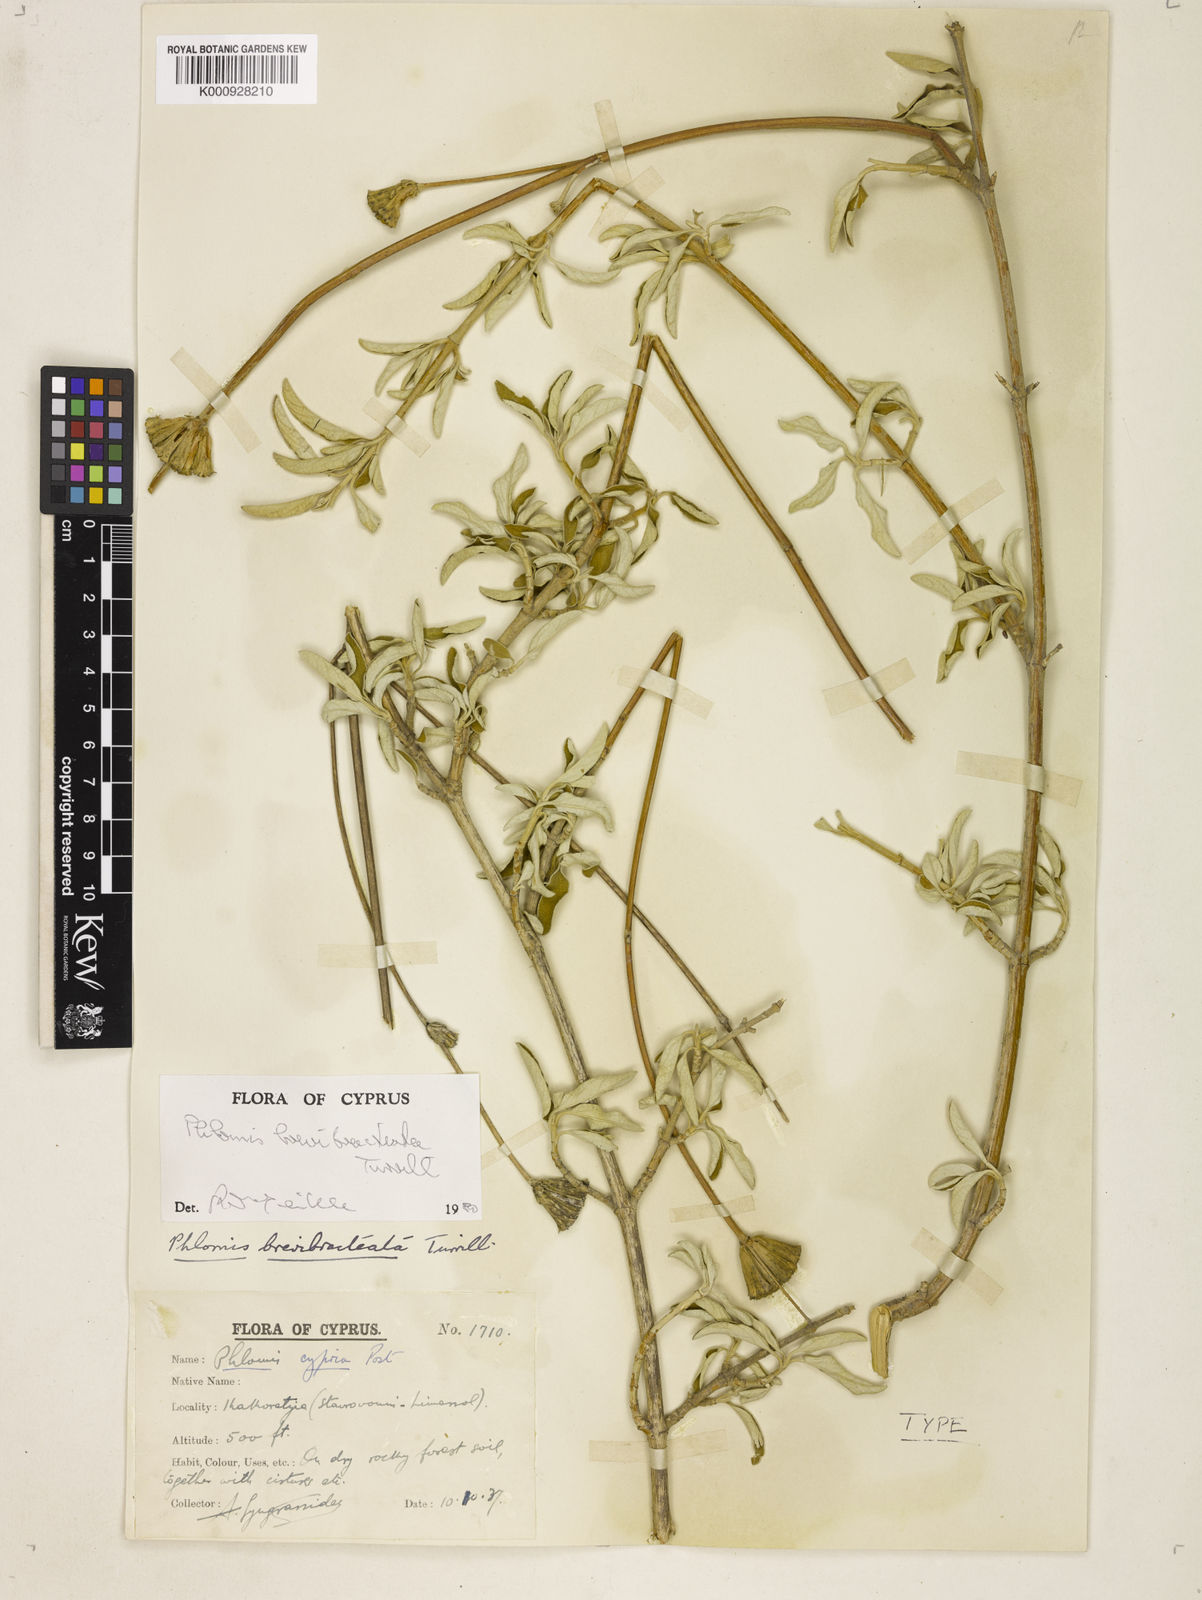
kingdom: Plantae
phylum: Tracheophyta
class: Magnoliopsida
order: Lamiales
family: Lamiaceae
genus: Phlomis
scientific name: Phlomis brevibracteata
